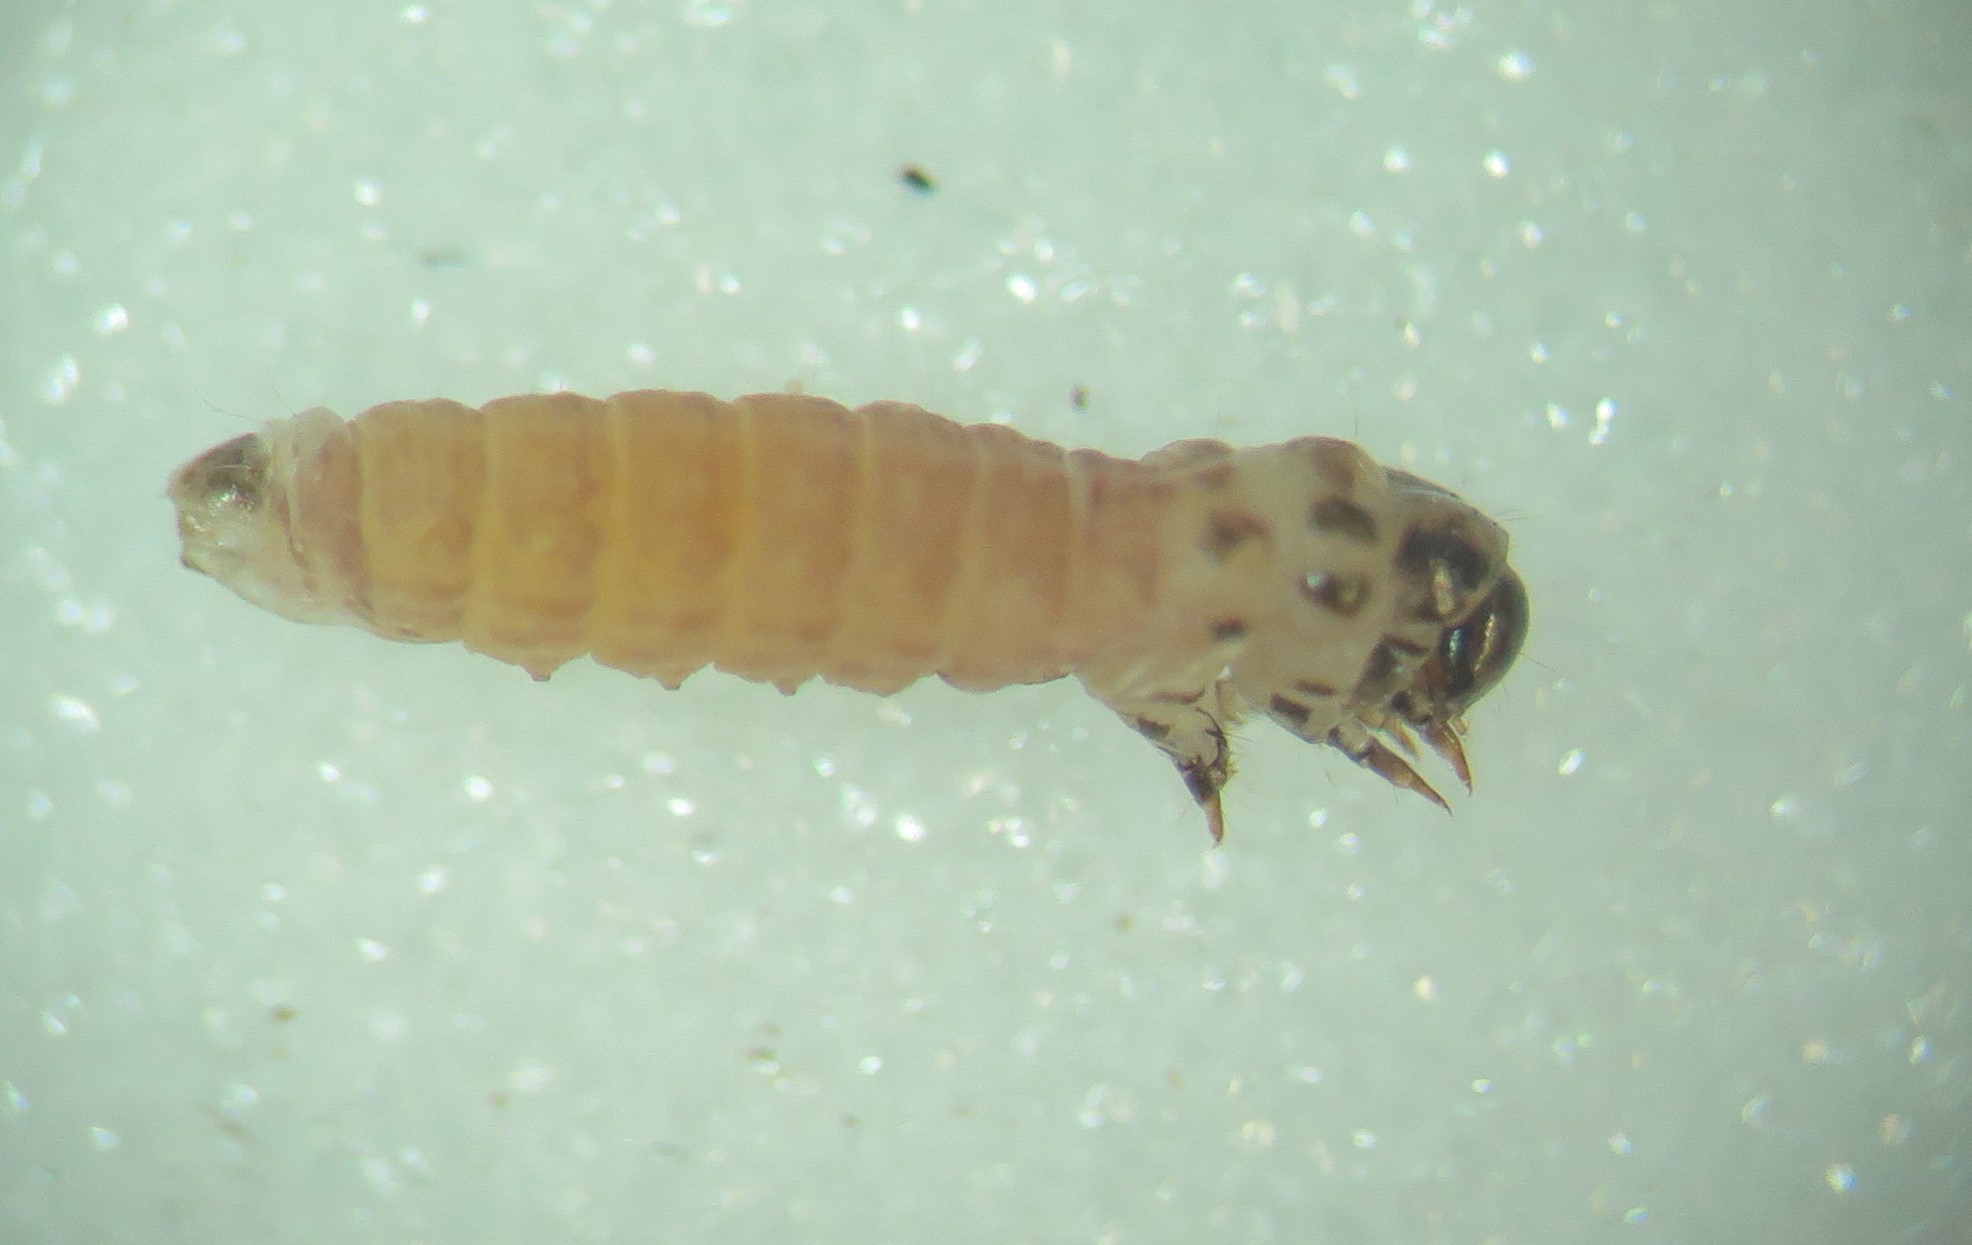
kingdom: Animalia
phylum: Arthropoda
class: Insecta
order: Lepidoptera
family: Psychidae
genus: Psyche
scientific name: Psyche casta
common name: Common sweep
